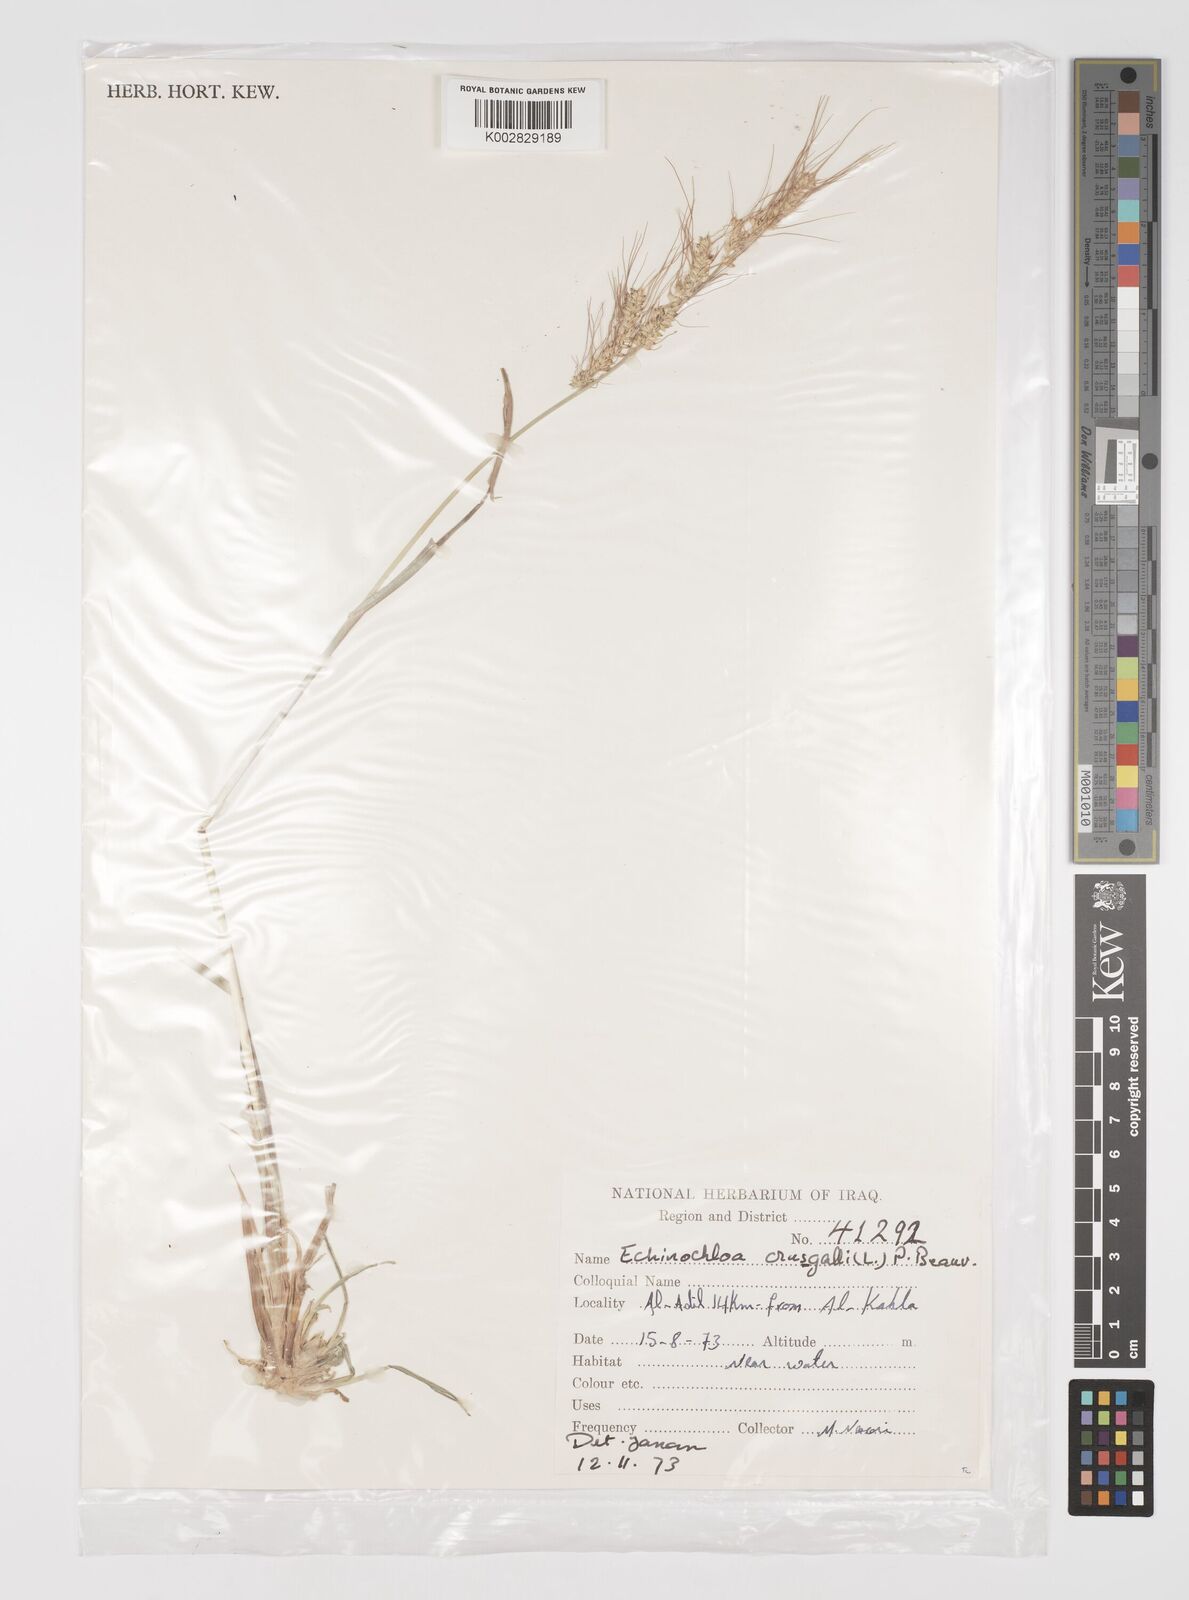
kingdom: Plantae
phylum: Tracheophyta
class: Liliopsida
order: Poales
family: Poaceae
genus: Echinochloa
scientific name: Echinochloa crus-galli
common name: Cockspur
